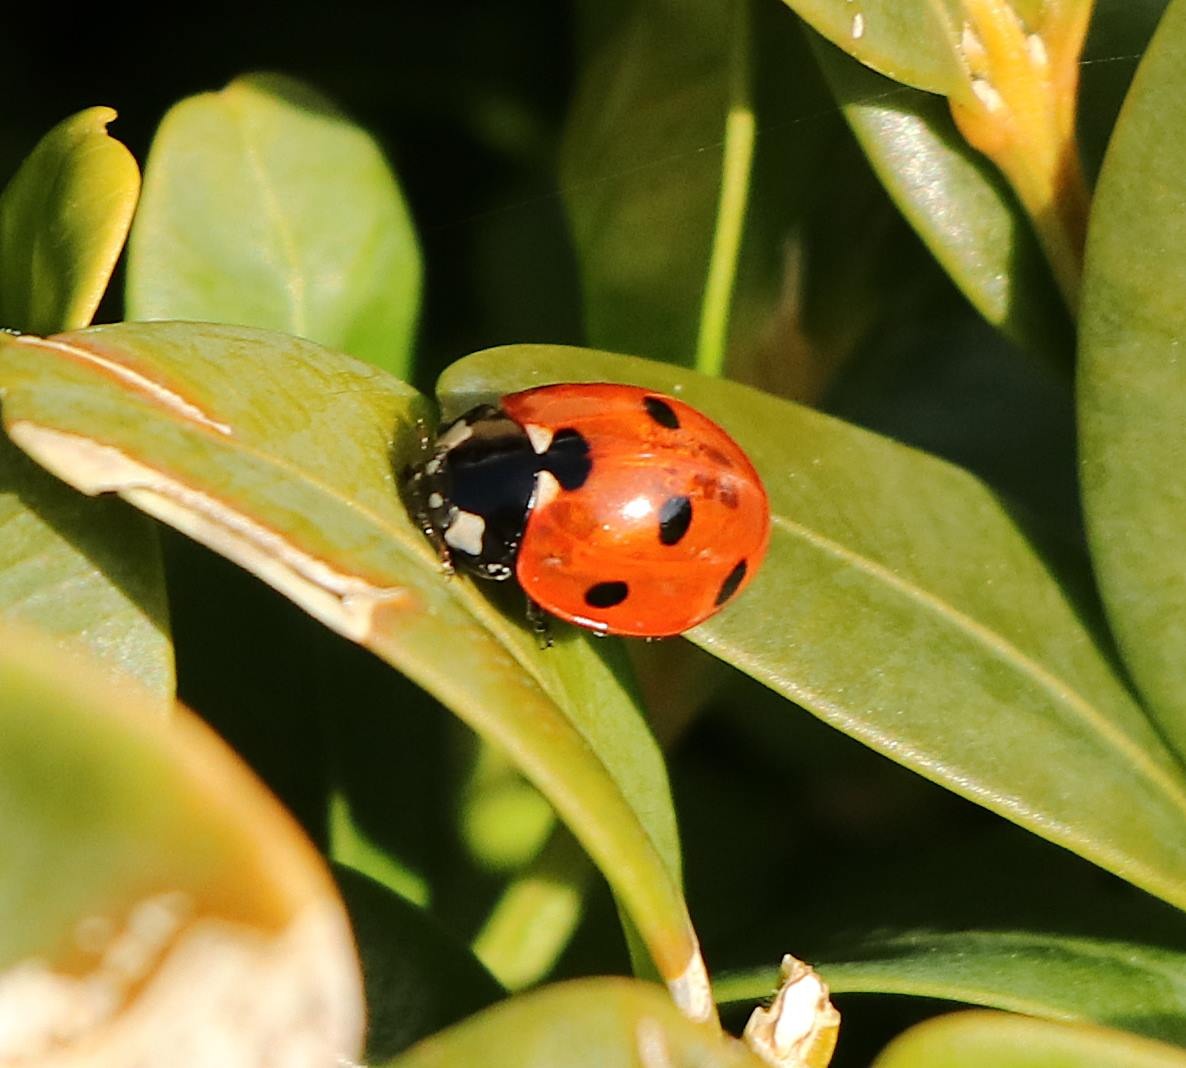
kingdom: Animalia
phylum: Arthropoda
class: Insecta
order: Coleoptera
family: Coccinellidae
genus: Coccinella
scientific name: Coccinella septempunctata
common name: Syvplettet mariehøne
